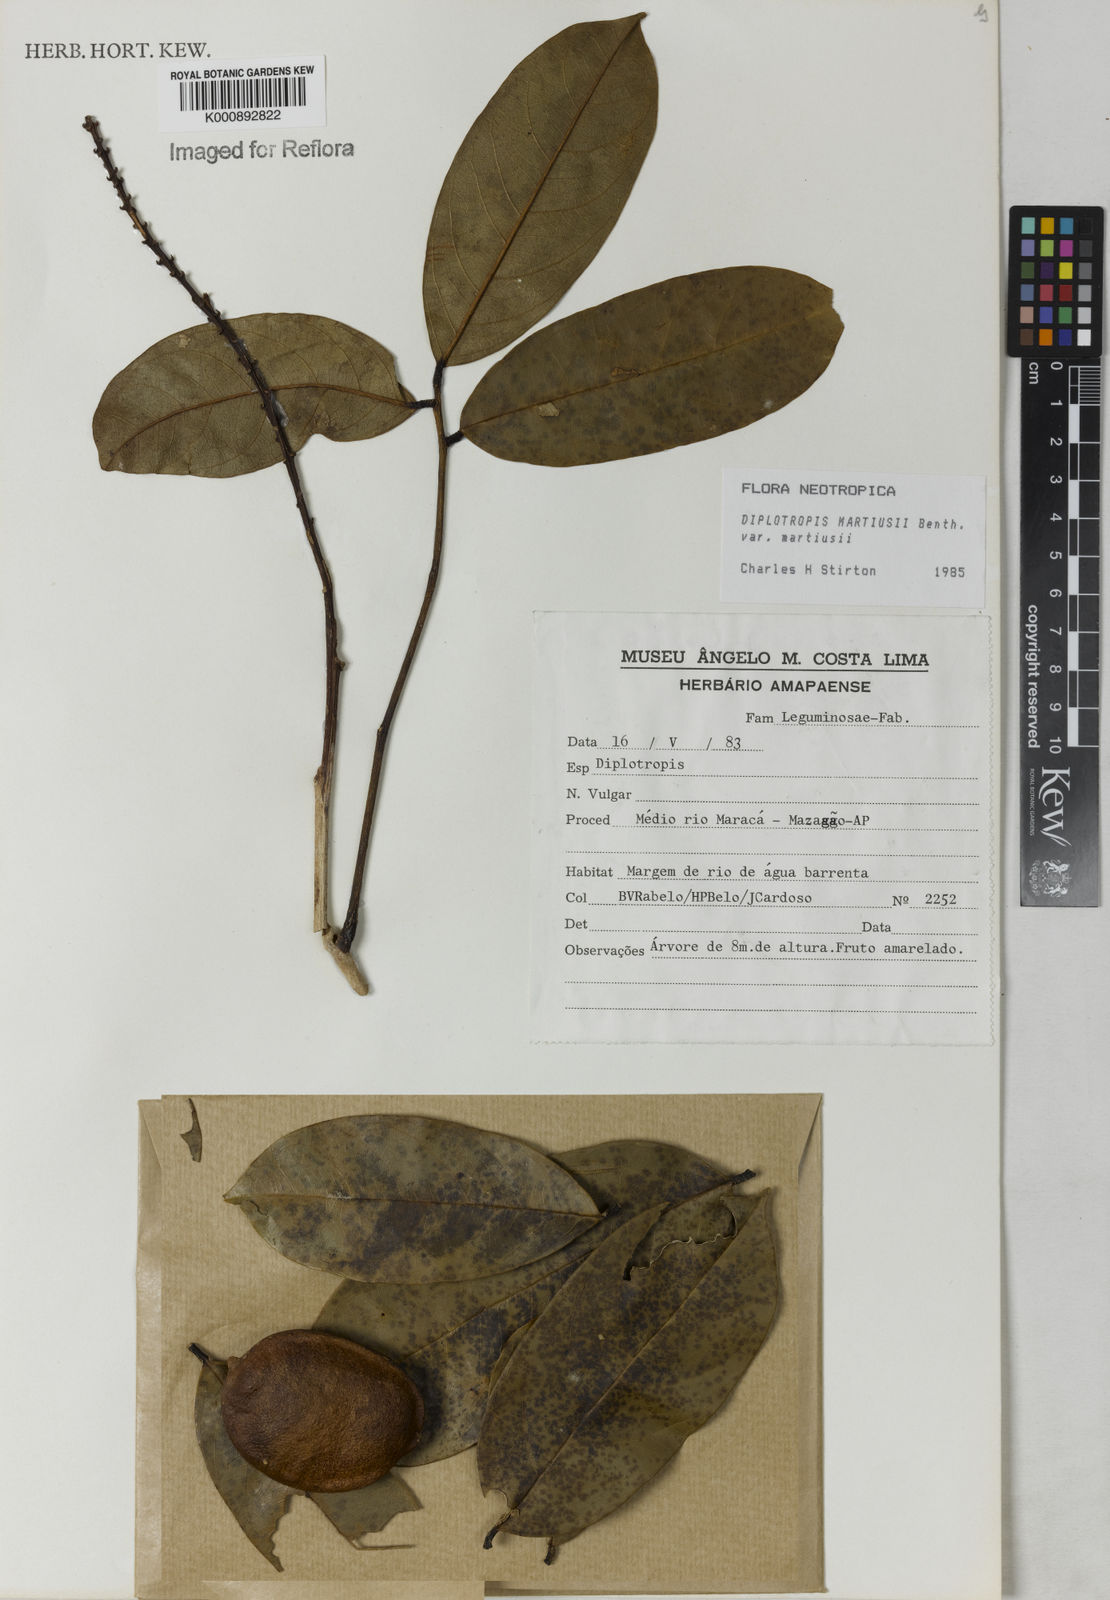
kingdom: Plantae
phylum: Tracheophyta
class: Magnoliopsida
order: Fabales
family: Fabaceae
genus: Diplotropis
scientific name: Diplotropis
